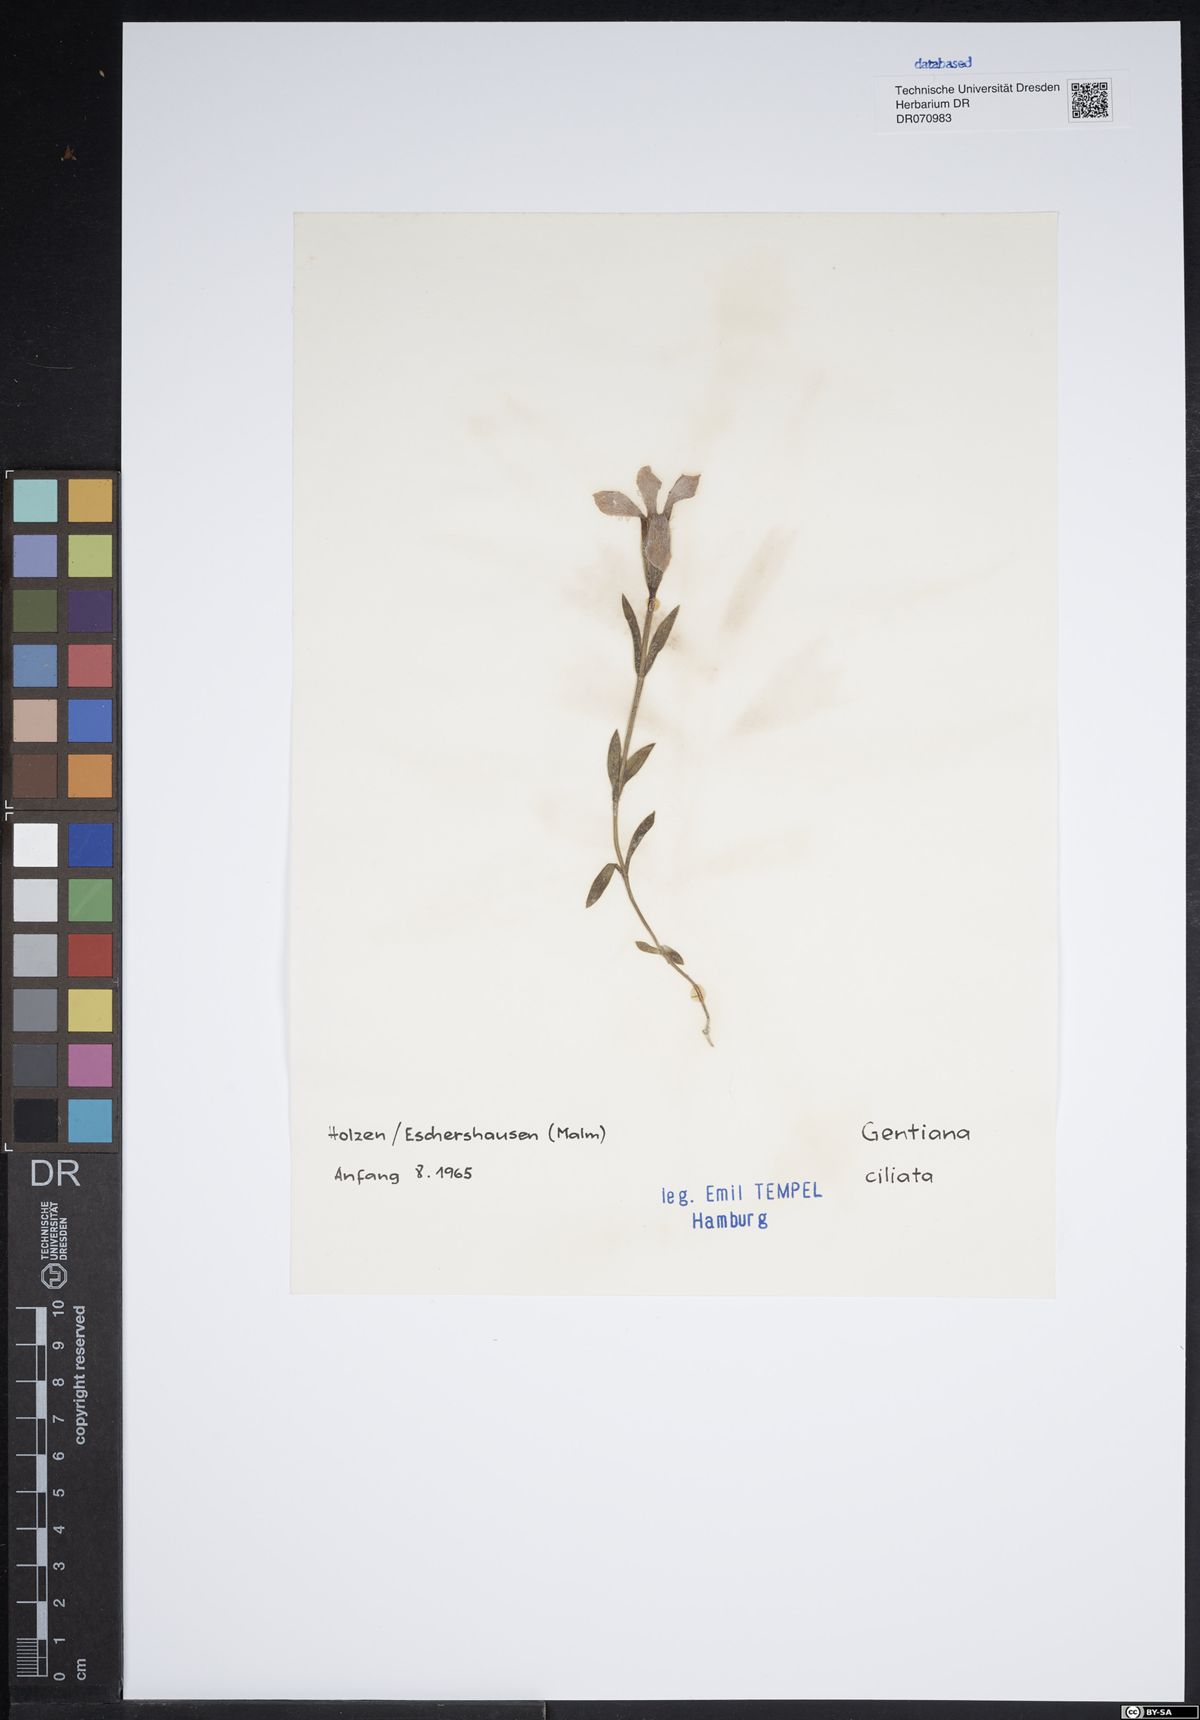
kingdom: Plantae
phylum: Tracheophyta
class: Magnoliopsida
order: Gentianales
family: Gentianaceae
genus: Gentianopsis
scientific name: Gentianopsis ciliata
